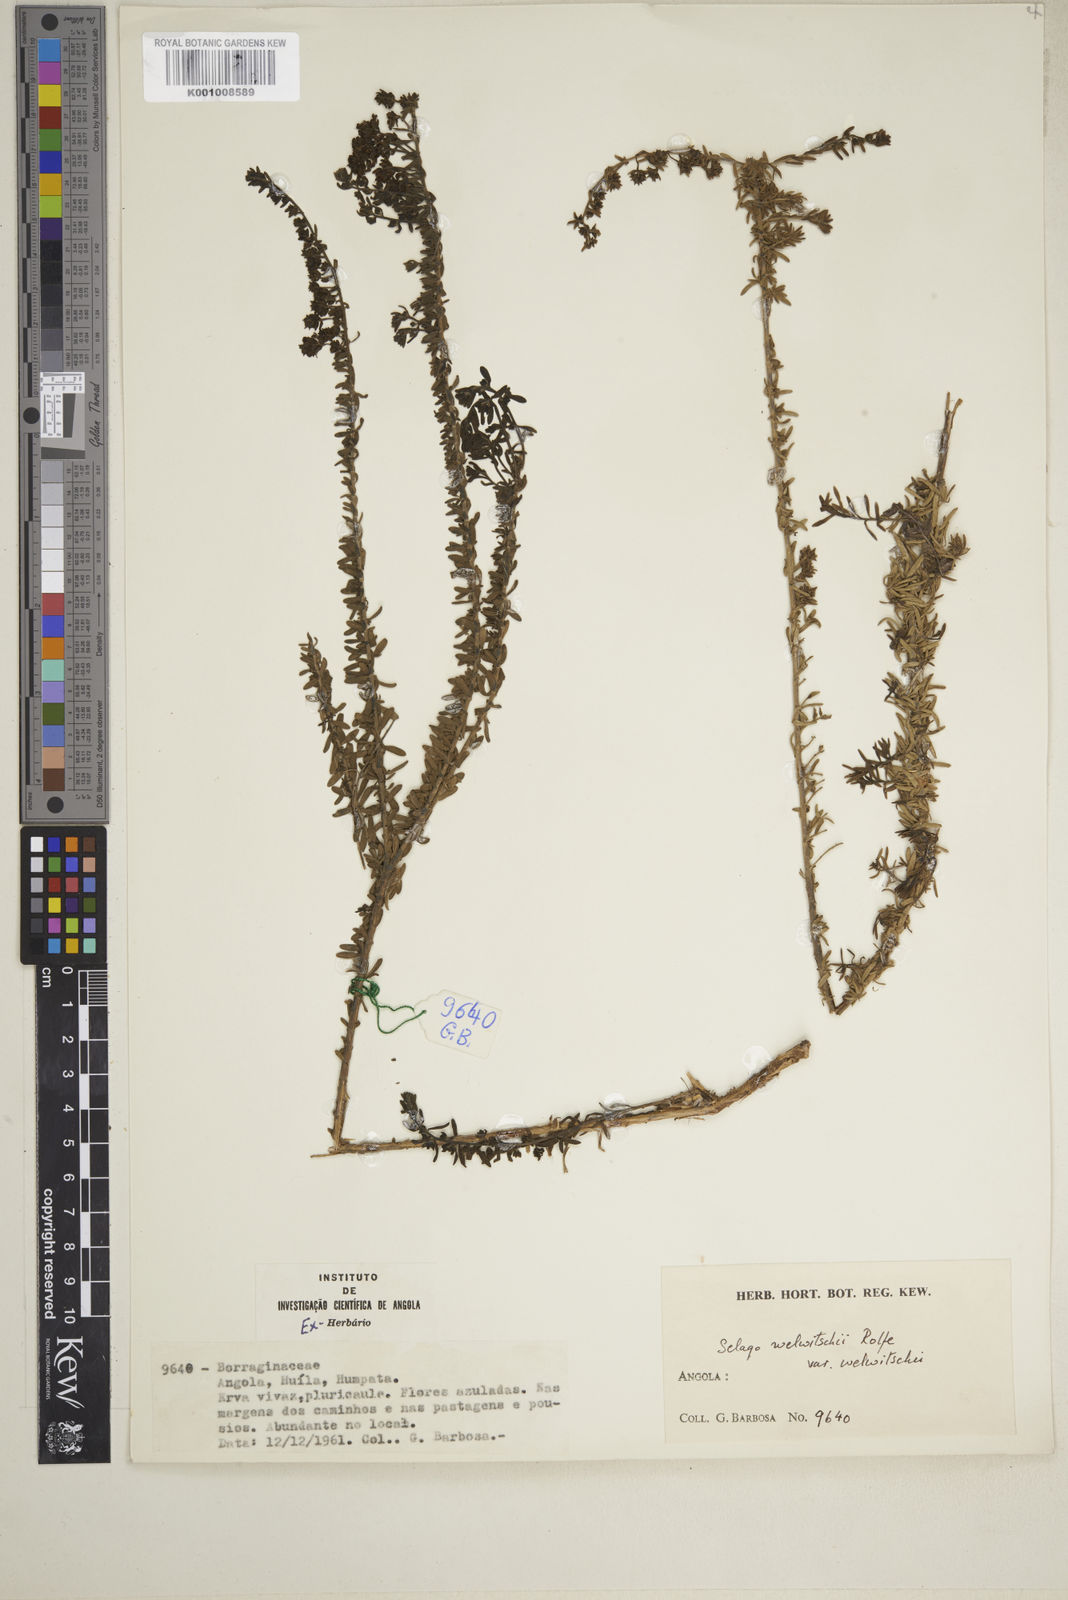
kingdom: Plantae
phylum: Tracheophyta
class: Magnoliopsida
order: Lamiales
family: Scrophulariaceae
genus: Selago
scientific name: Selago welwitschii
